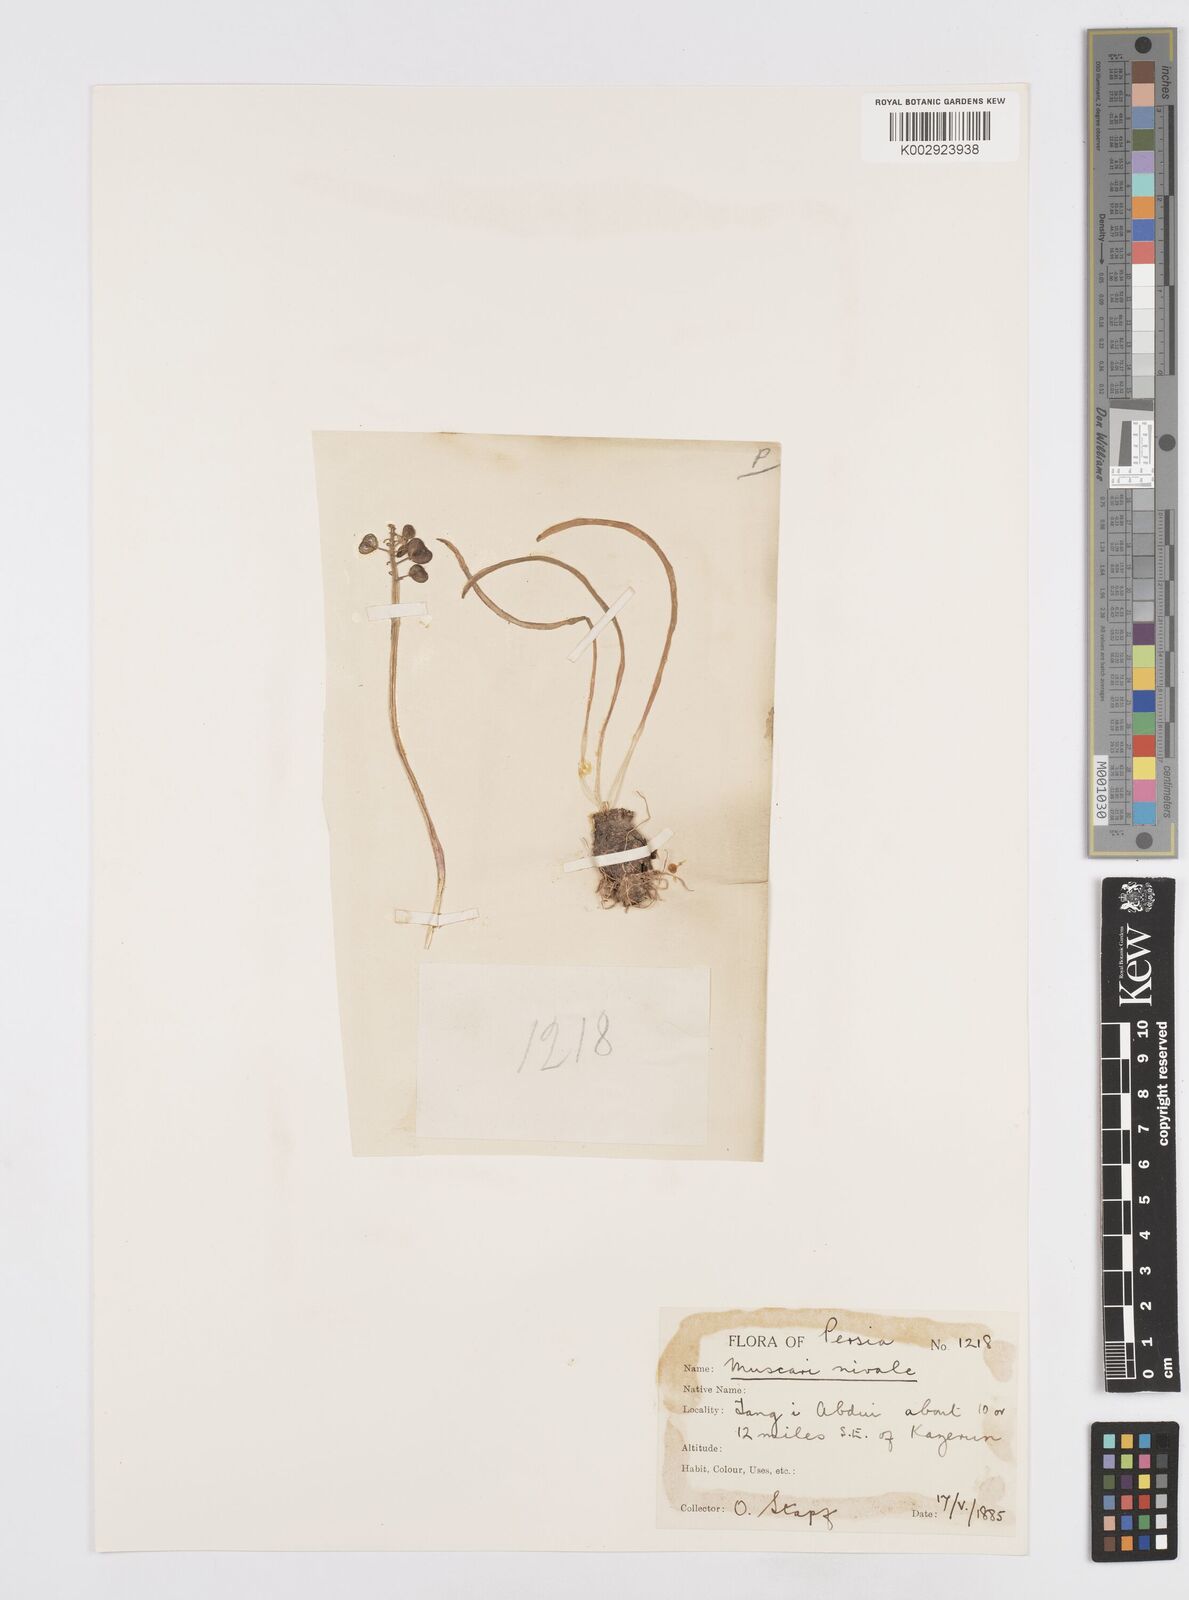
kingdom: Plantae
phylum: Tracheophyta
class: Liliopsida
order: Asparagales
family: Asparagaceae
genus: Muscari
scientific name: Muscari neglectum
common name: Grape-hyacinth
